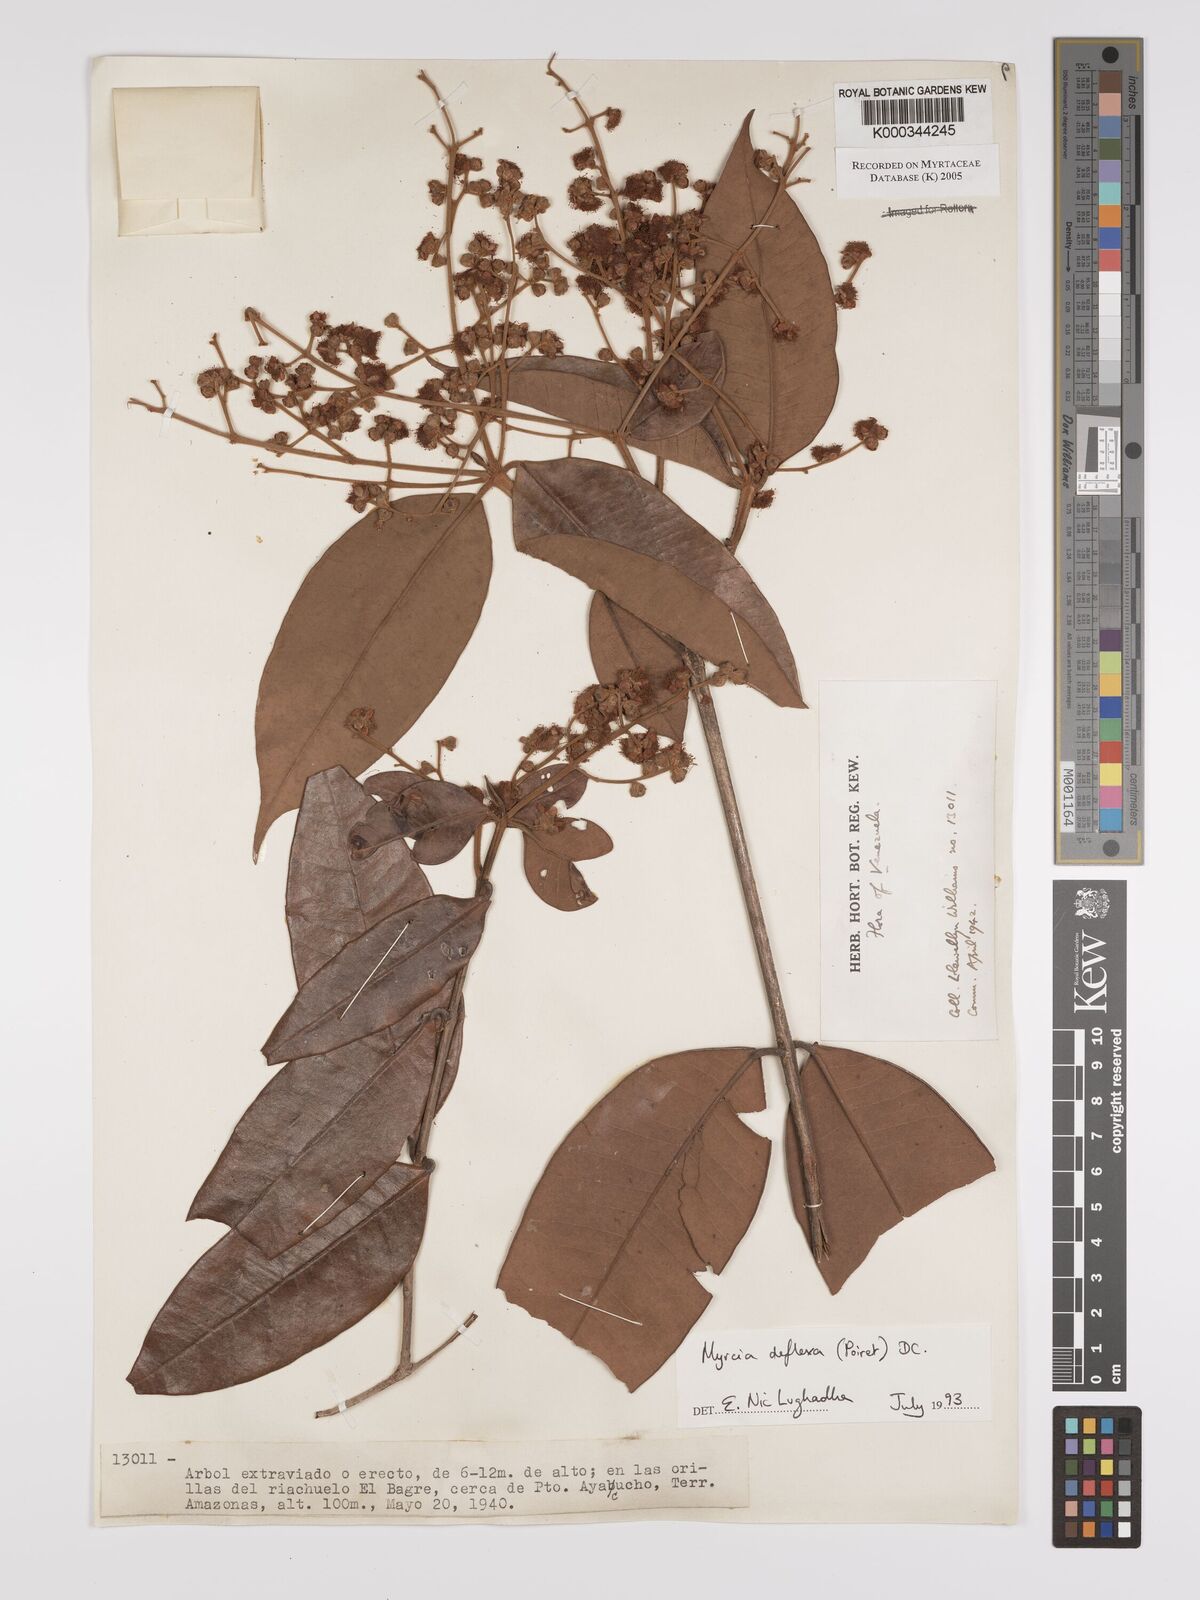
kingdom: Plantae
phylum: Tracheophyta
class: Magnoliopsida
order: Myrtales
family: Myrtaceae
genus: Myrcia
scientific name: Myrcia deflexa
